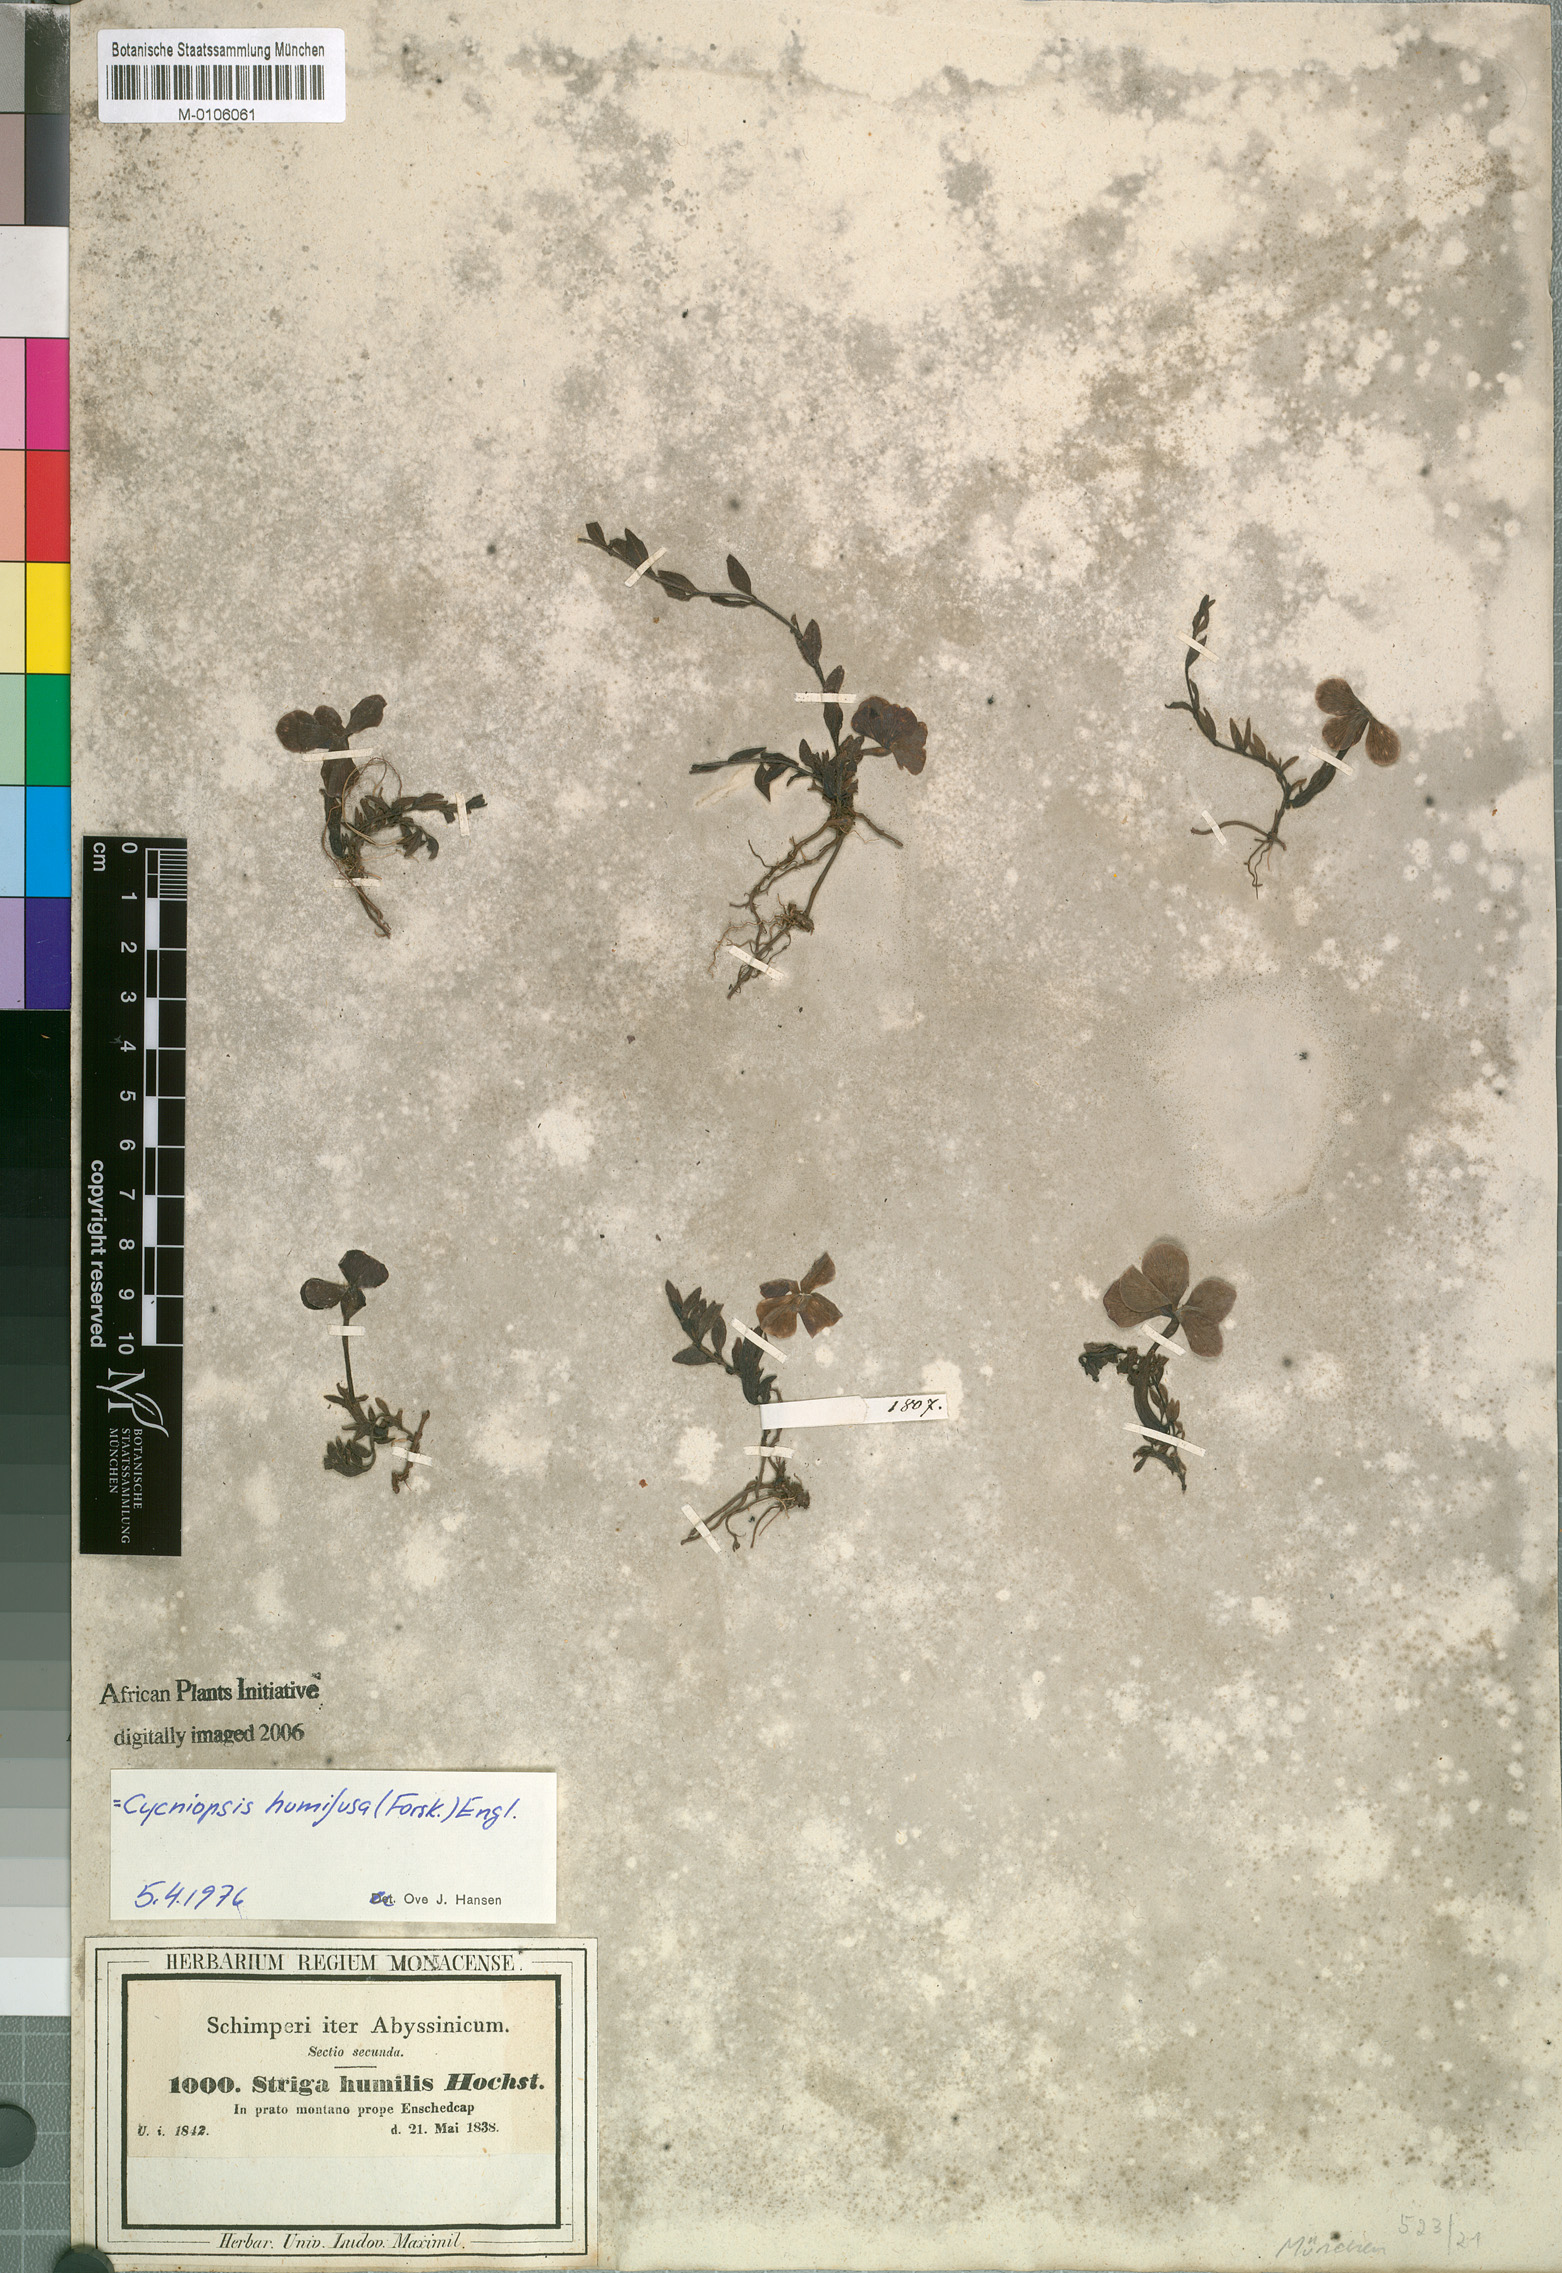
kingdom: Plantae
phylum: Tracheophyta
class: Magnoliopsida
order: Lamiales
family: Orobanchaceae
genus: Cycniopsis
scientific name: Cycniopsis humifusa
